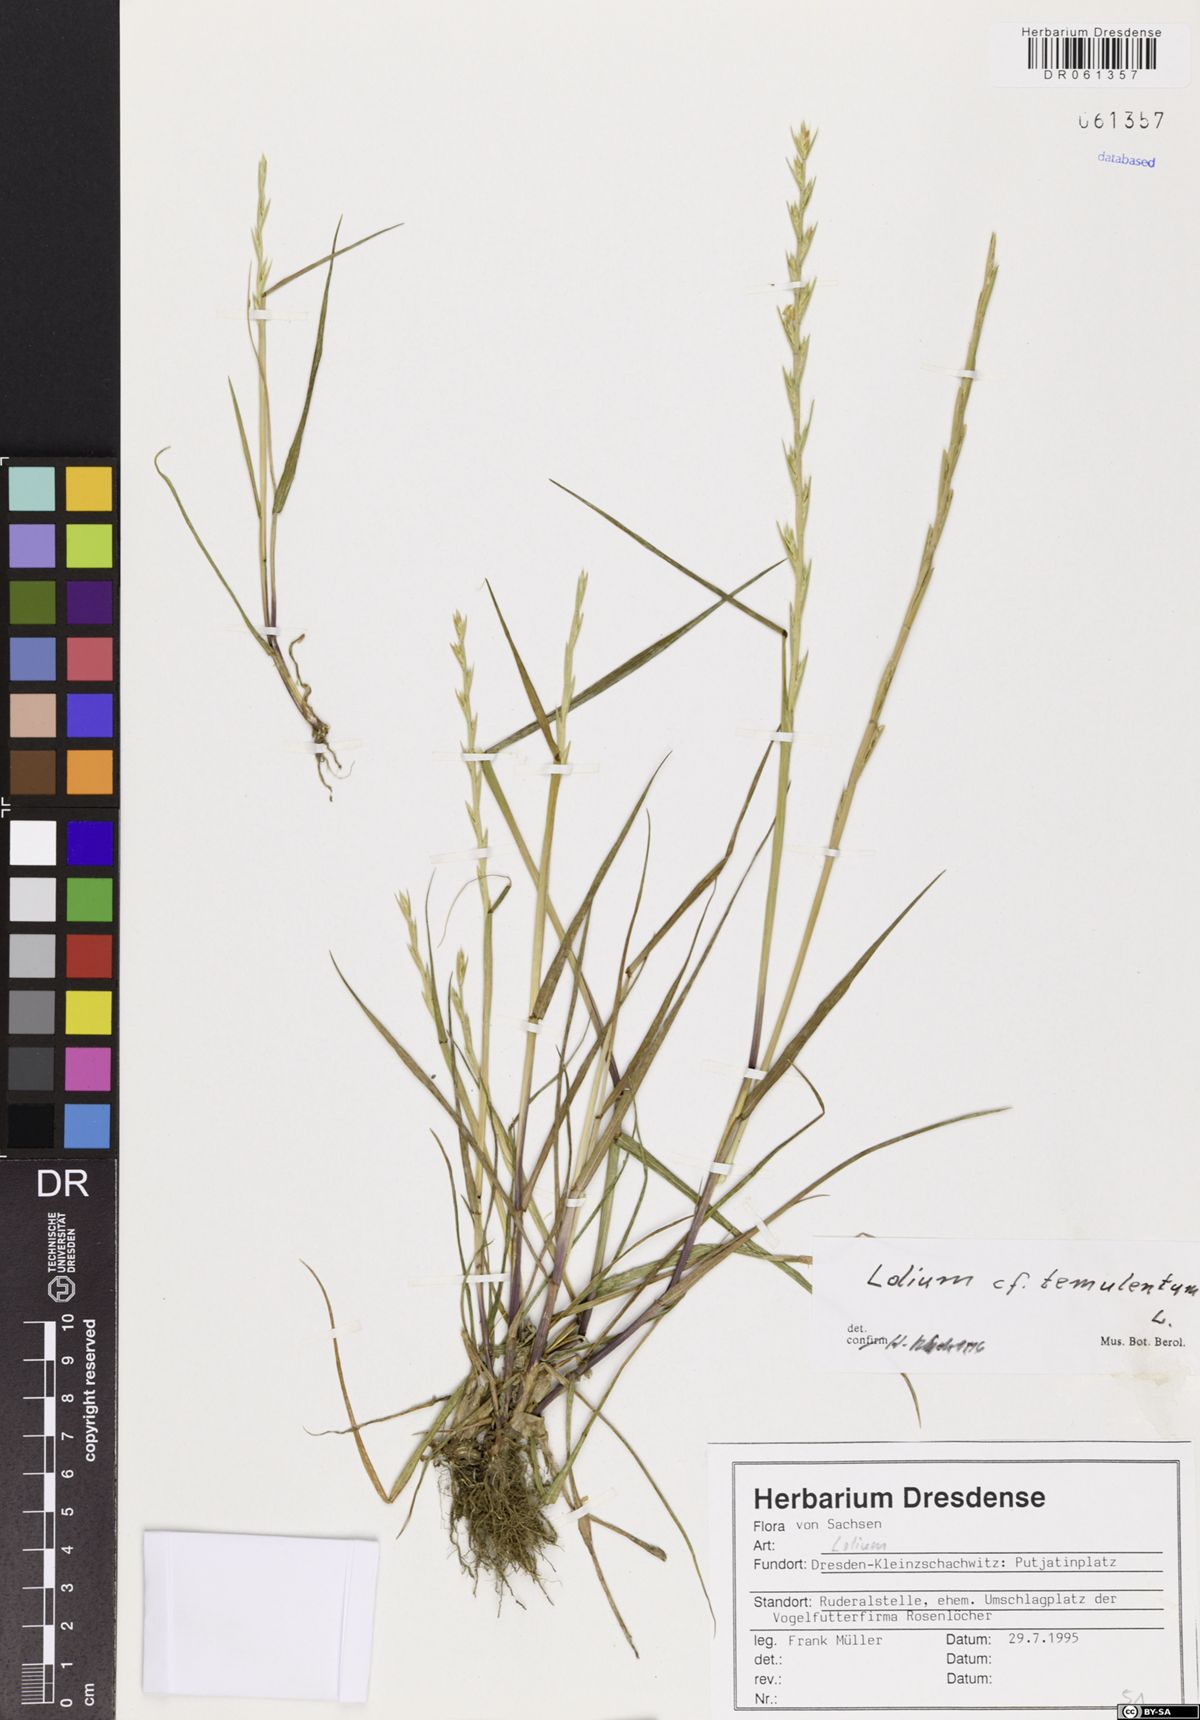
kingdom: Plantae
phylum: Tracheophyta
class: Liliopsida
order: Poales
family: Poaceae
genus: Lolium
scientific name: Lolium temulentum
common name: Darnel
